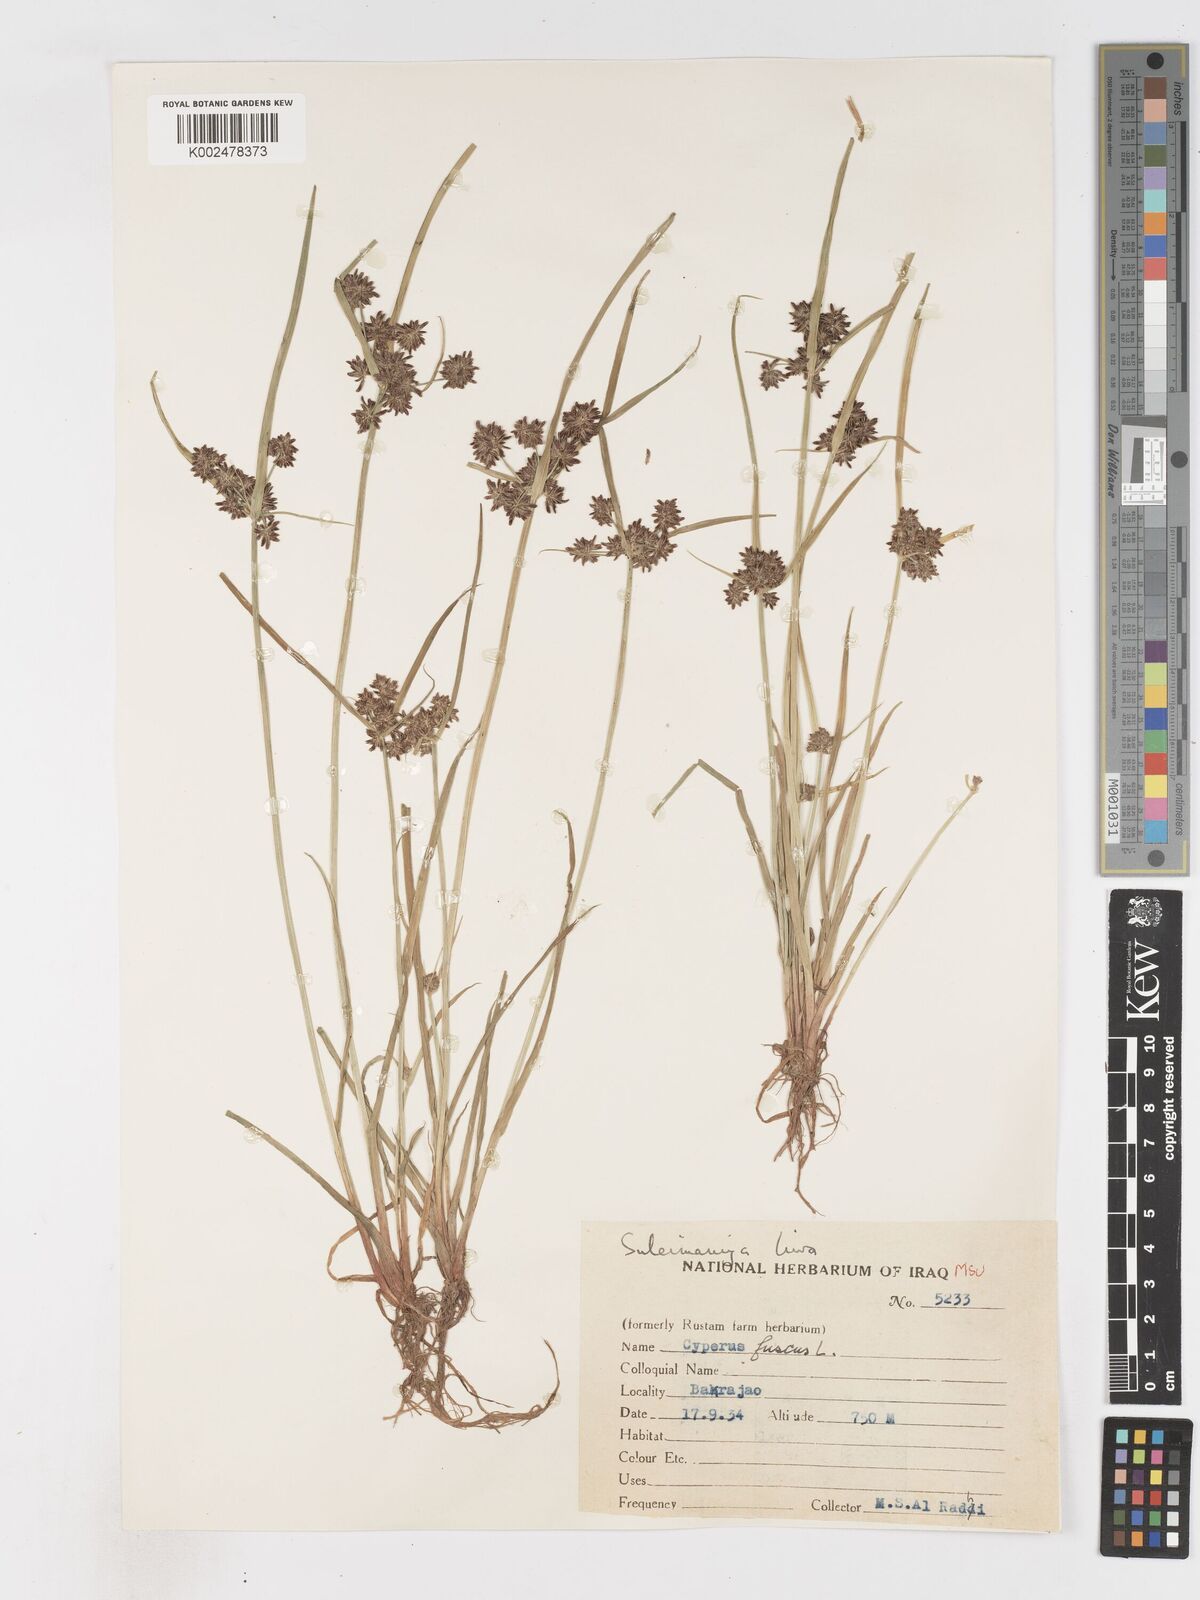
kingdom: Plantae
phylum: Tracheophyta
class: Liliopsida
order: Poales
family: Cyperaceae
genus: Cyperus
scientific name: Cyperus fuscus
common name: Brown galingale
